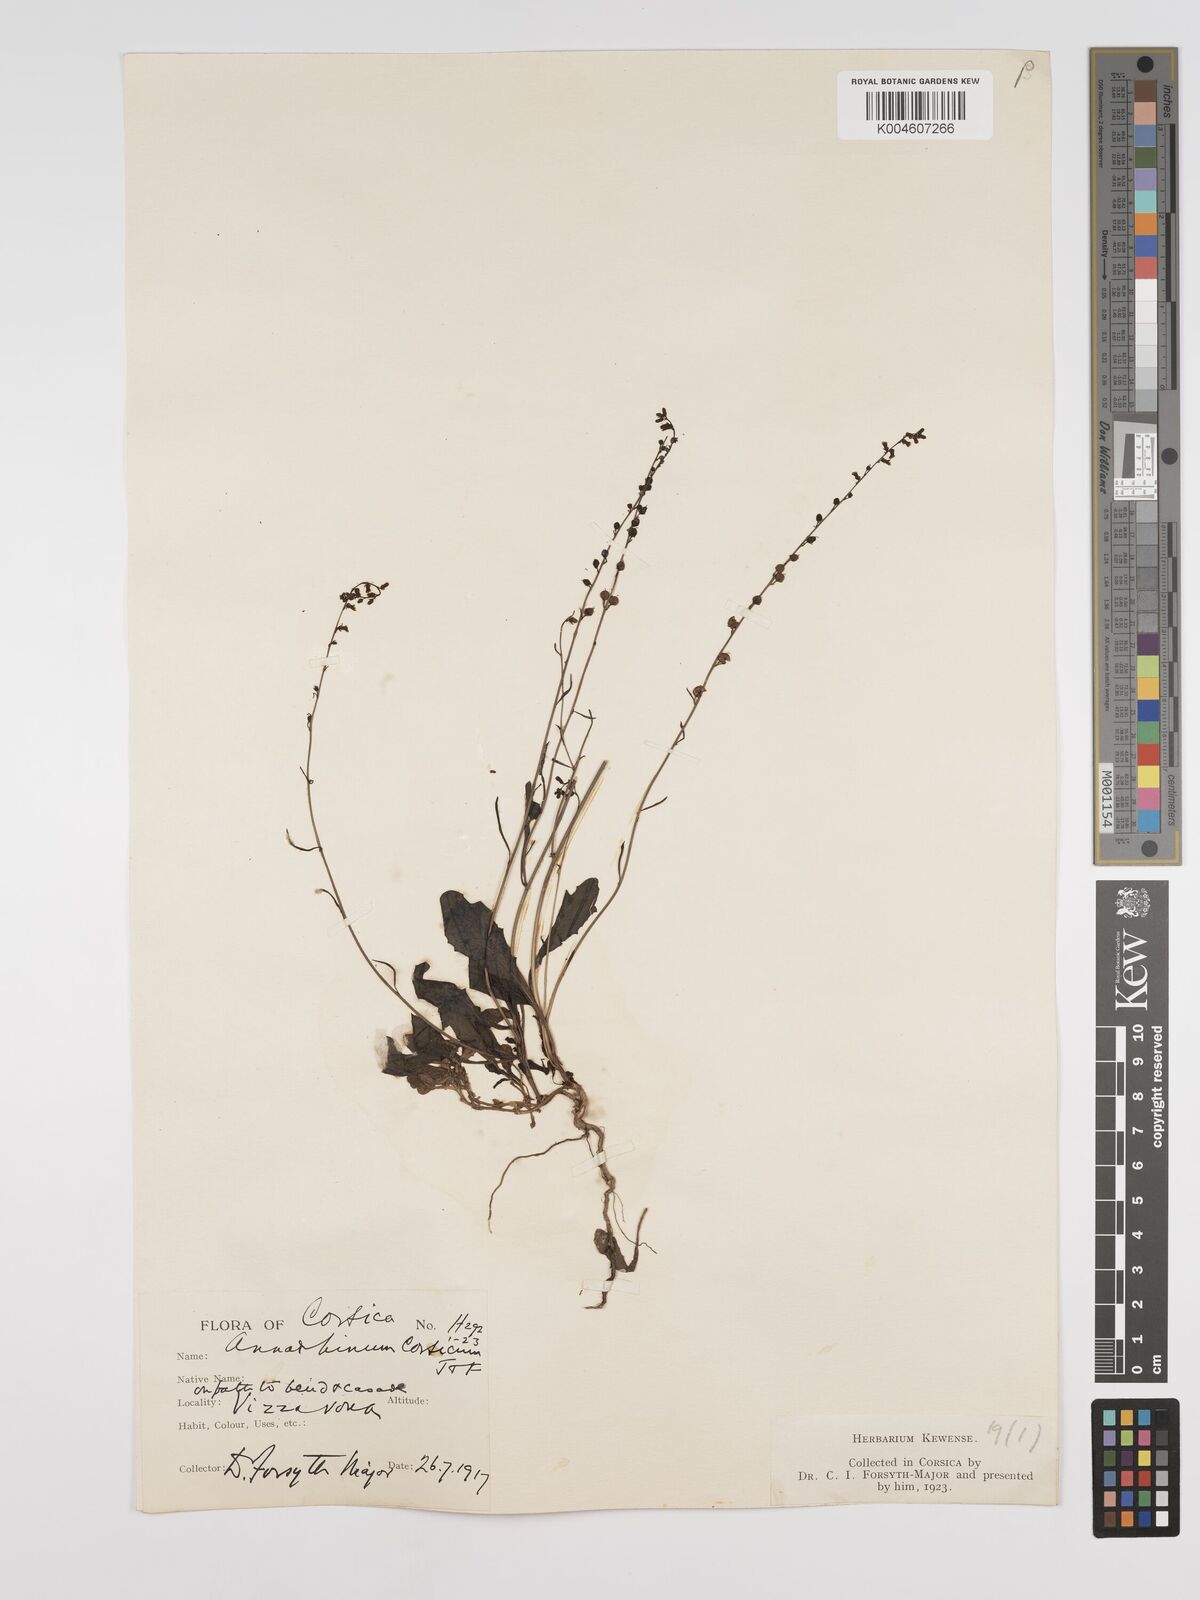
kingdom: Plantae
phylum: Tracheophyta
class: Magnoliopsida
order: Lamiales
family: Plantaginaceae
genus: Anarrhinum
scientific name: Anarrhinum corsicum
